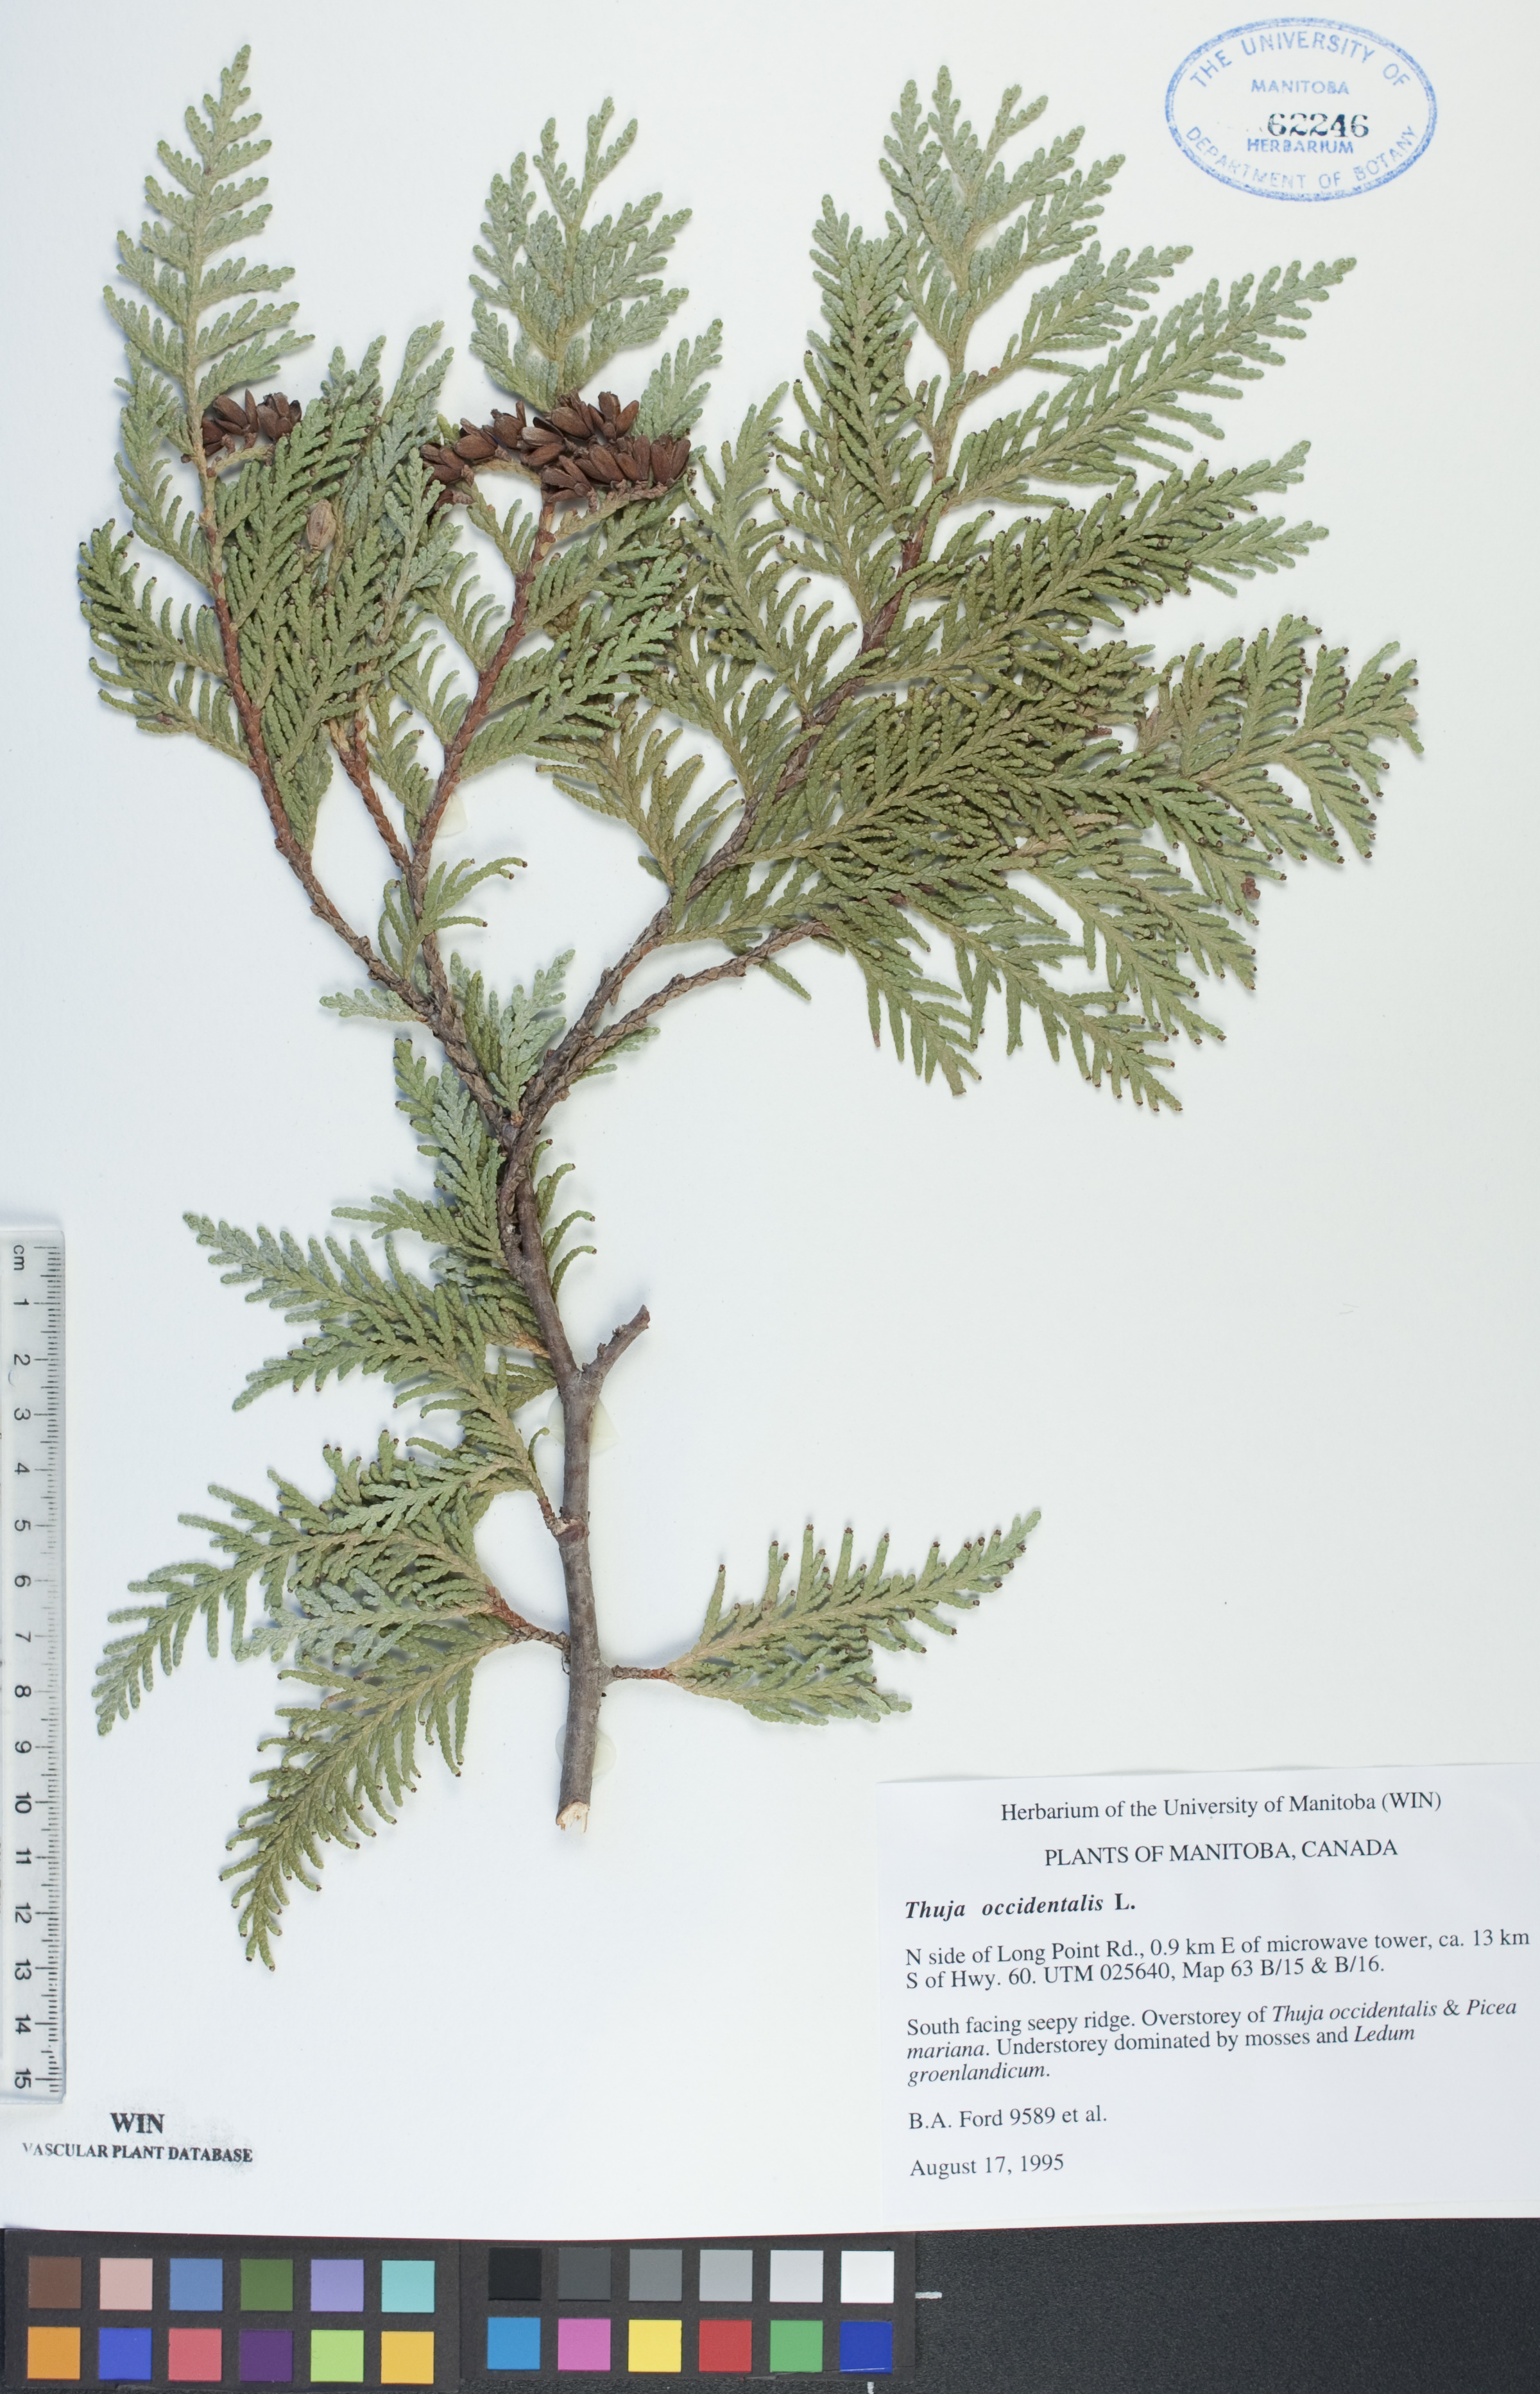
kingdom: Plantae
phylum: Tracheophyta
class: Pinopsida
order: Pinales
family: Cupressaceae
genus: Thuja
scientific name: Thuja occidentalis
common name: Northern white-cedar
